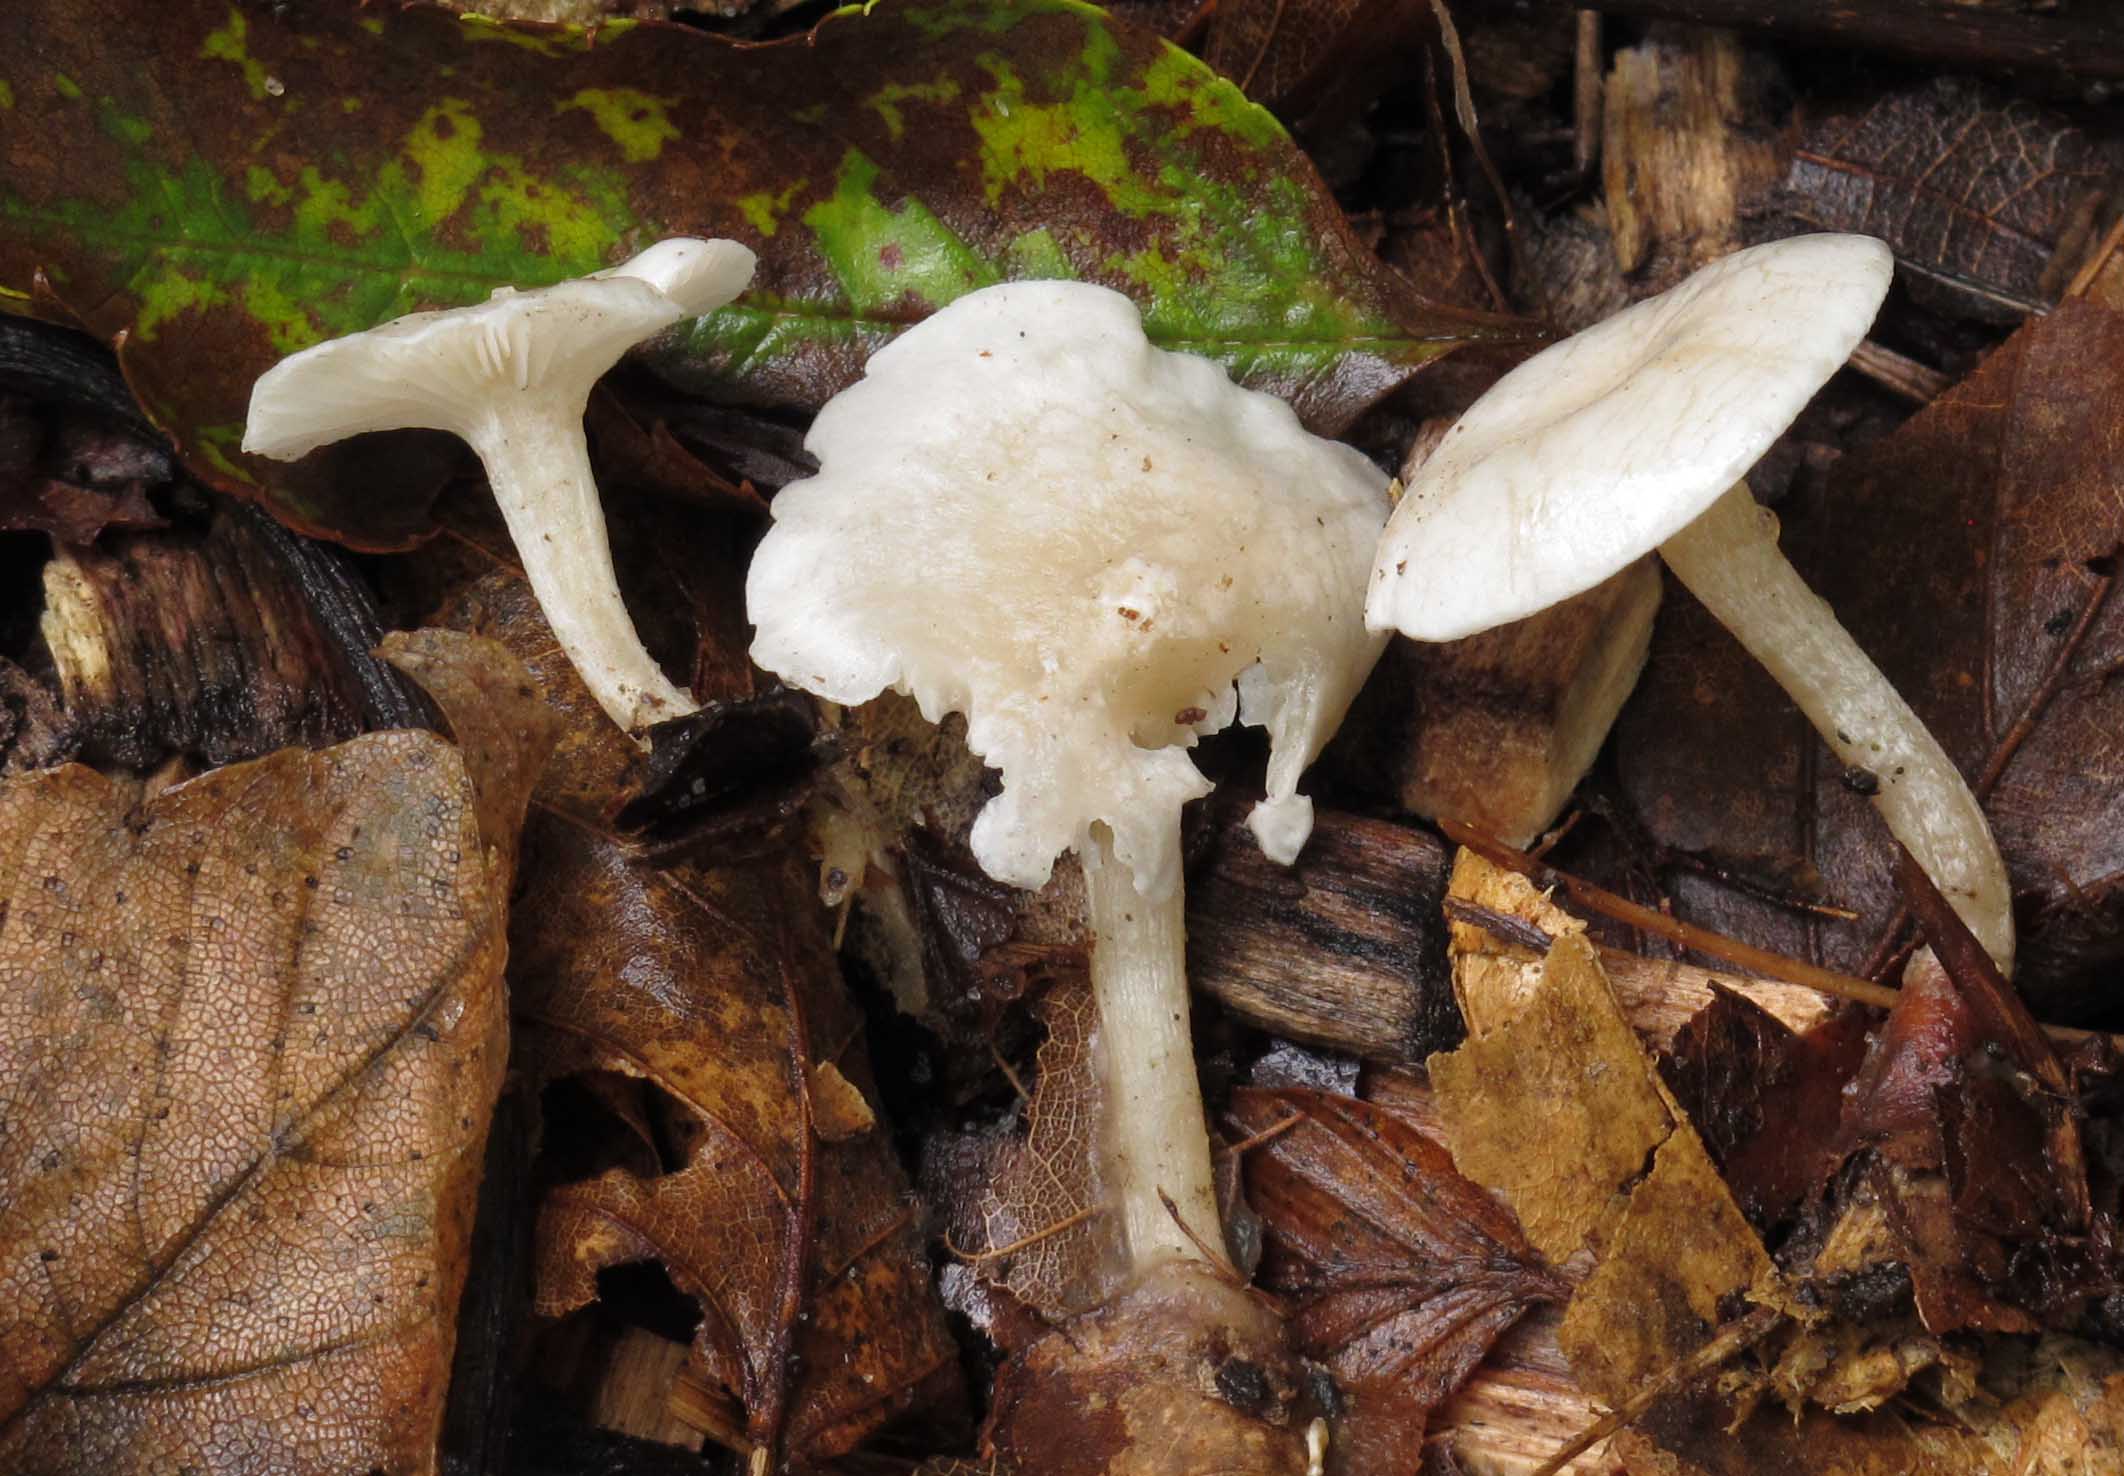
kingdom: Fungi
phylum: Basidiomycota
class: Agaricomycetes
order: Agaricales
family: Tricholomataceae
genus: Leucocybe
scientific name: Leucocybe candicans
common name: kridt-tragthat
